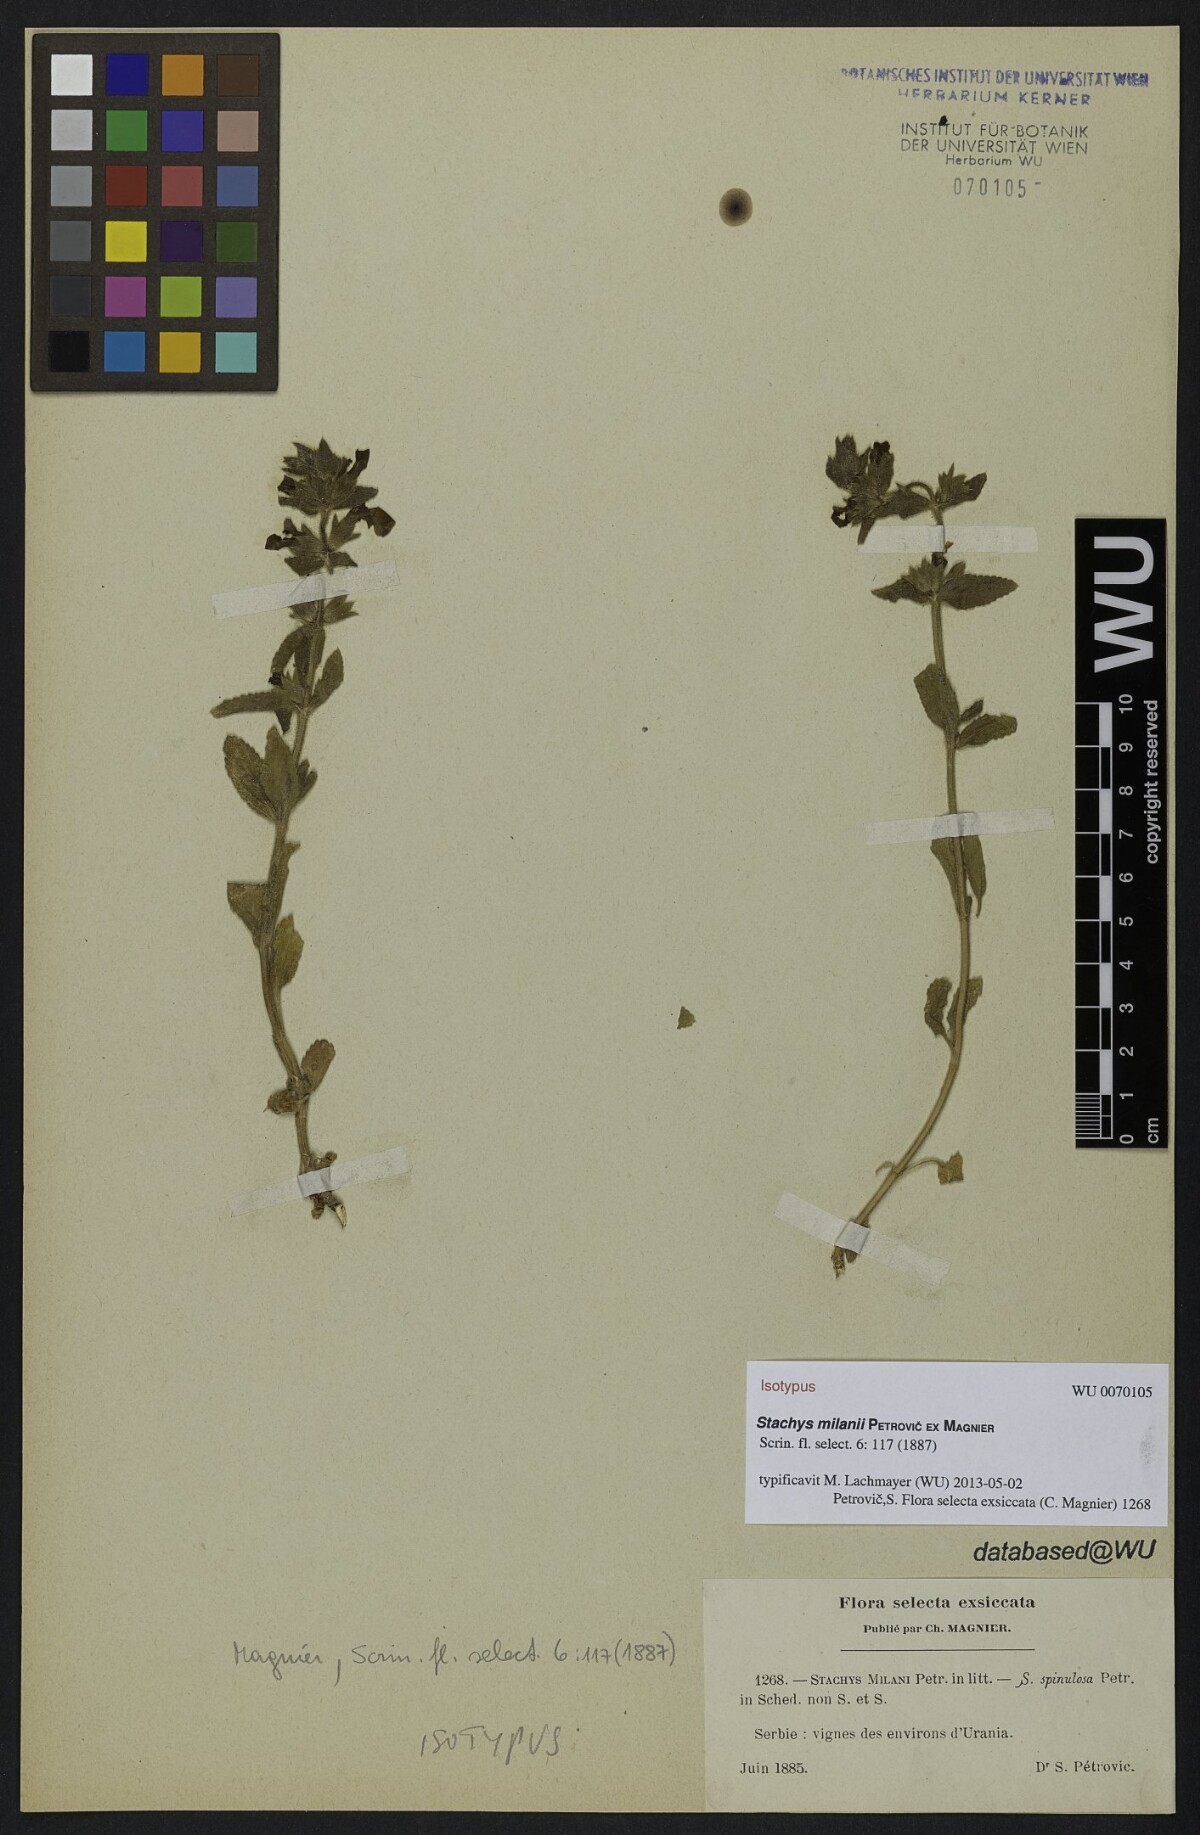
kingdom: Plantae
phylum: Tracheophyta
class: Magnoliopsida
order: Lamiales
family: Lamiaceae
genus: Stachys
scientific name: Stachys milanii
